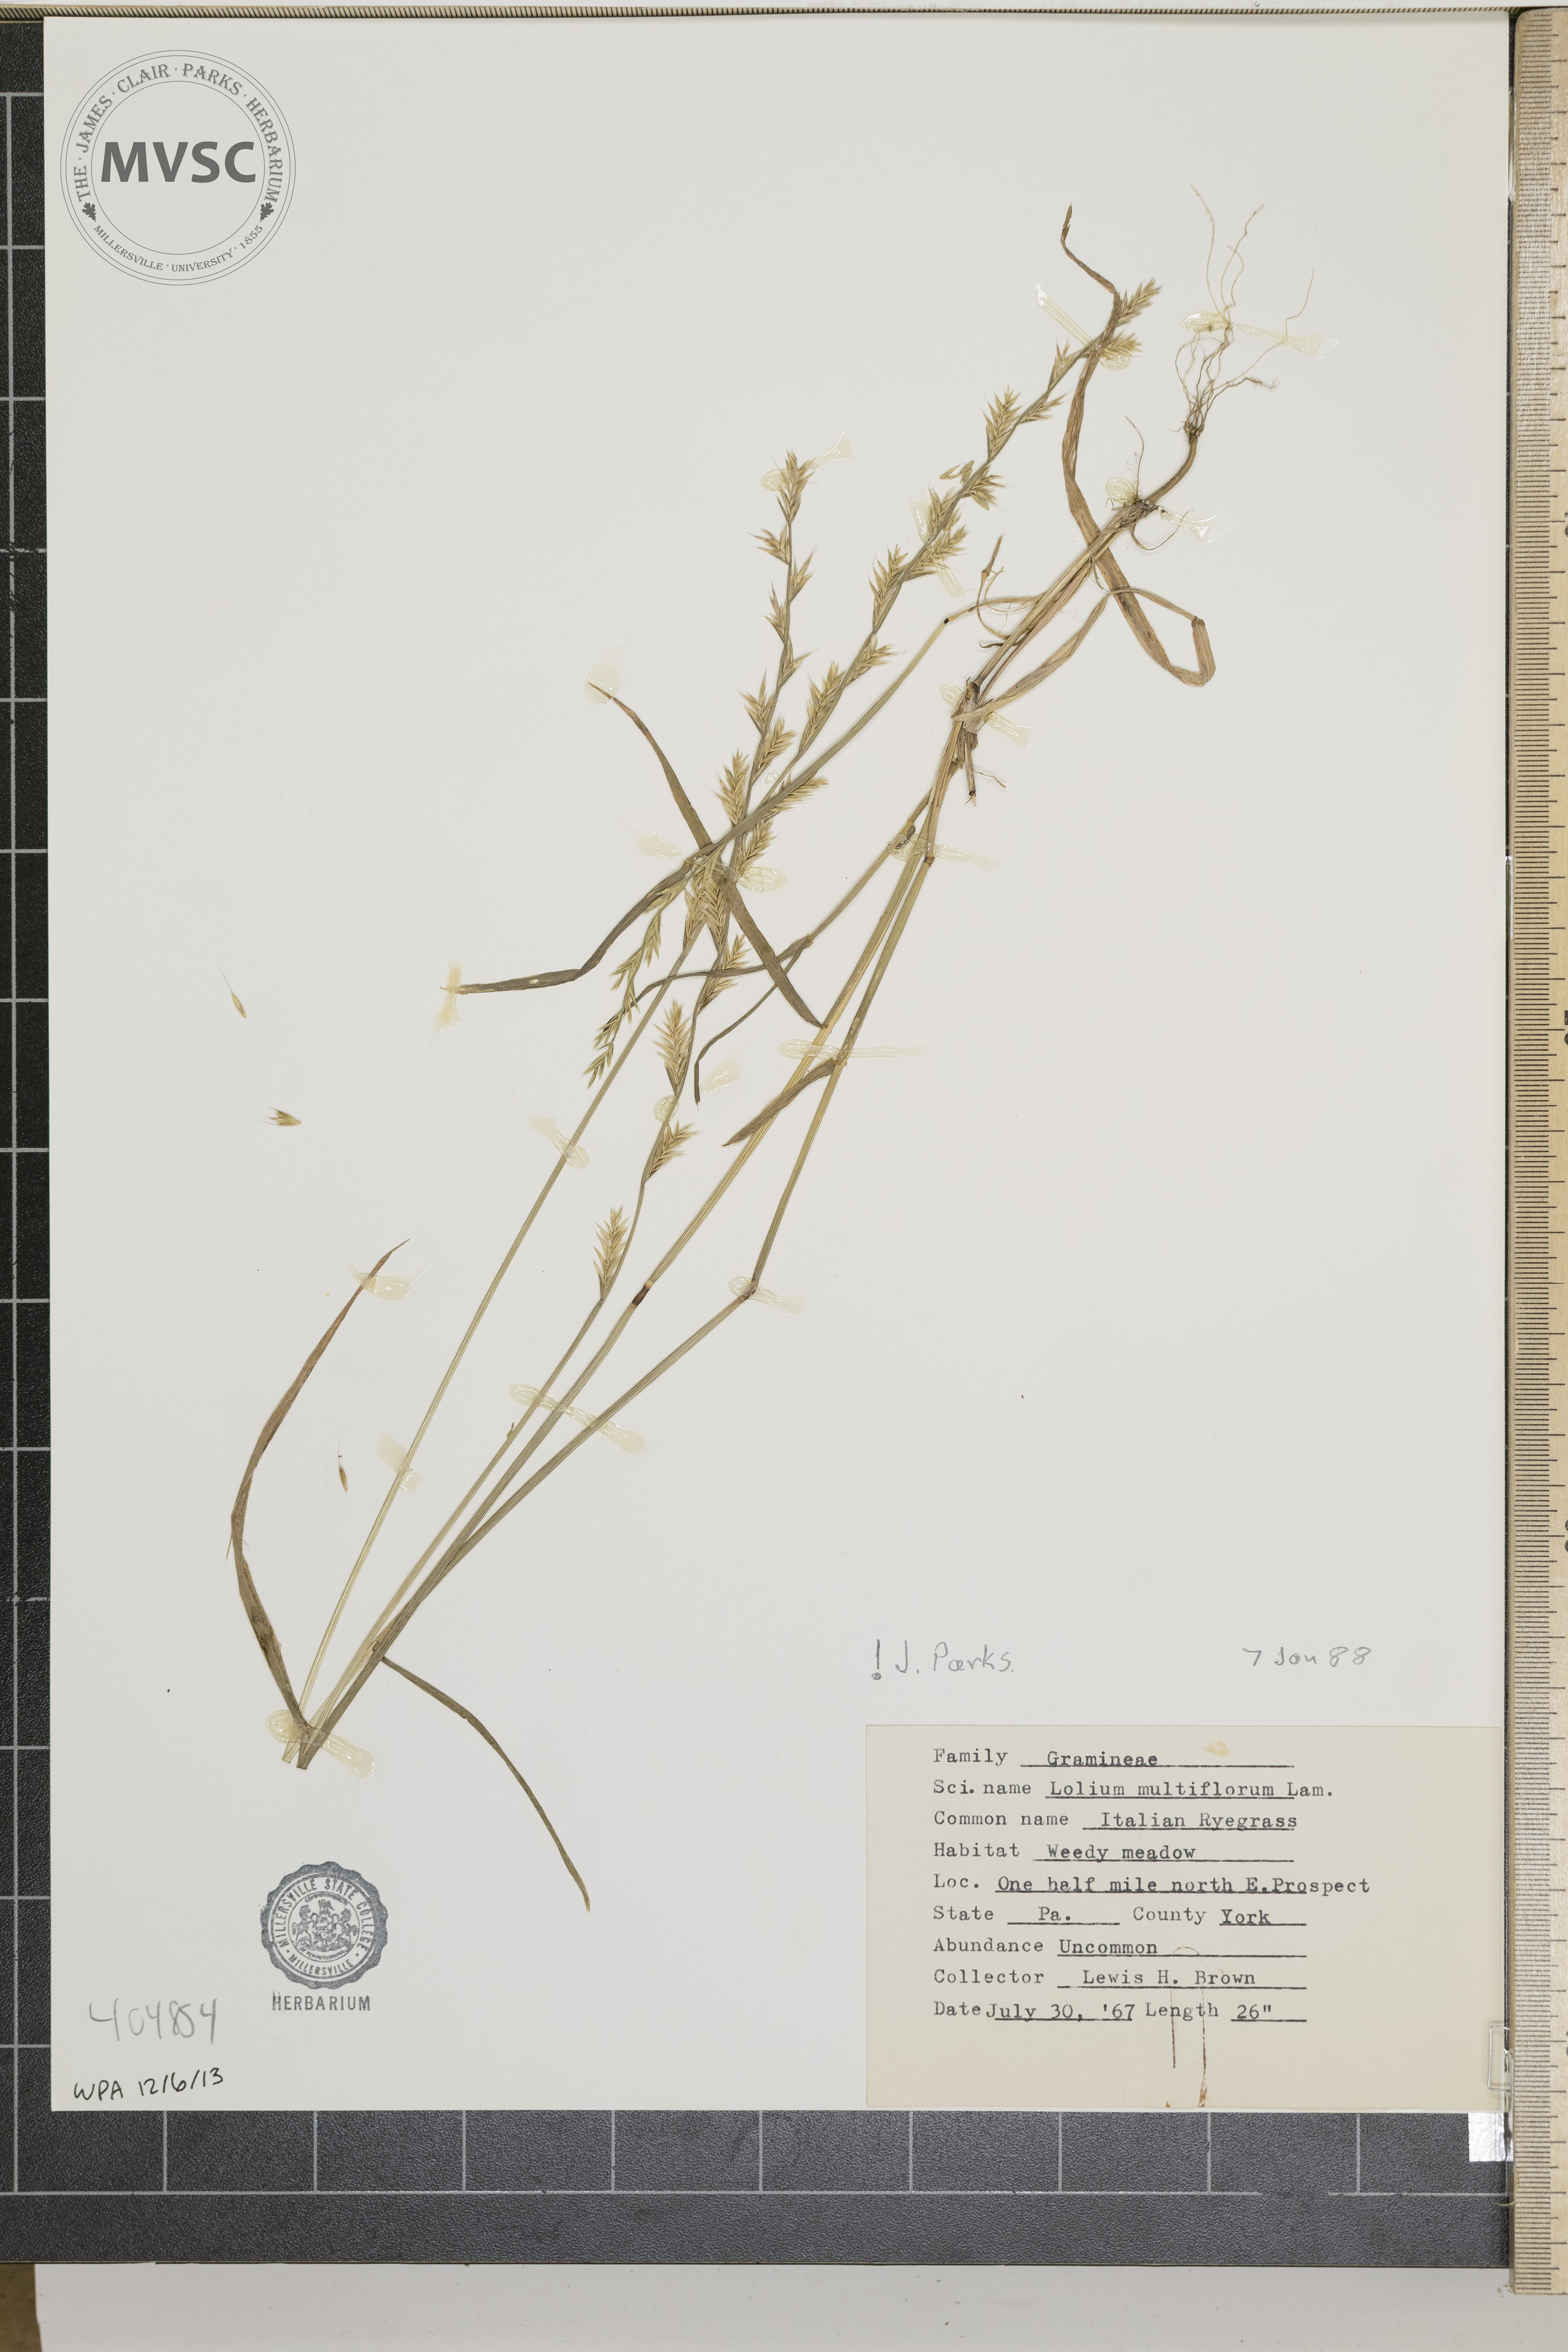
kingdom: Plantae
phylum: Tracheophyta
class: Liliopsida
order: Poales
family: Poaceae
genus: Lolium
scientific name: Lolium multiflorum
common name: Italian Ryegrass
